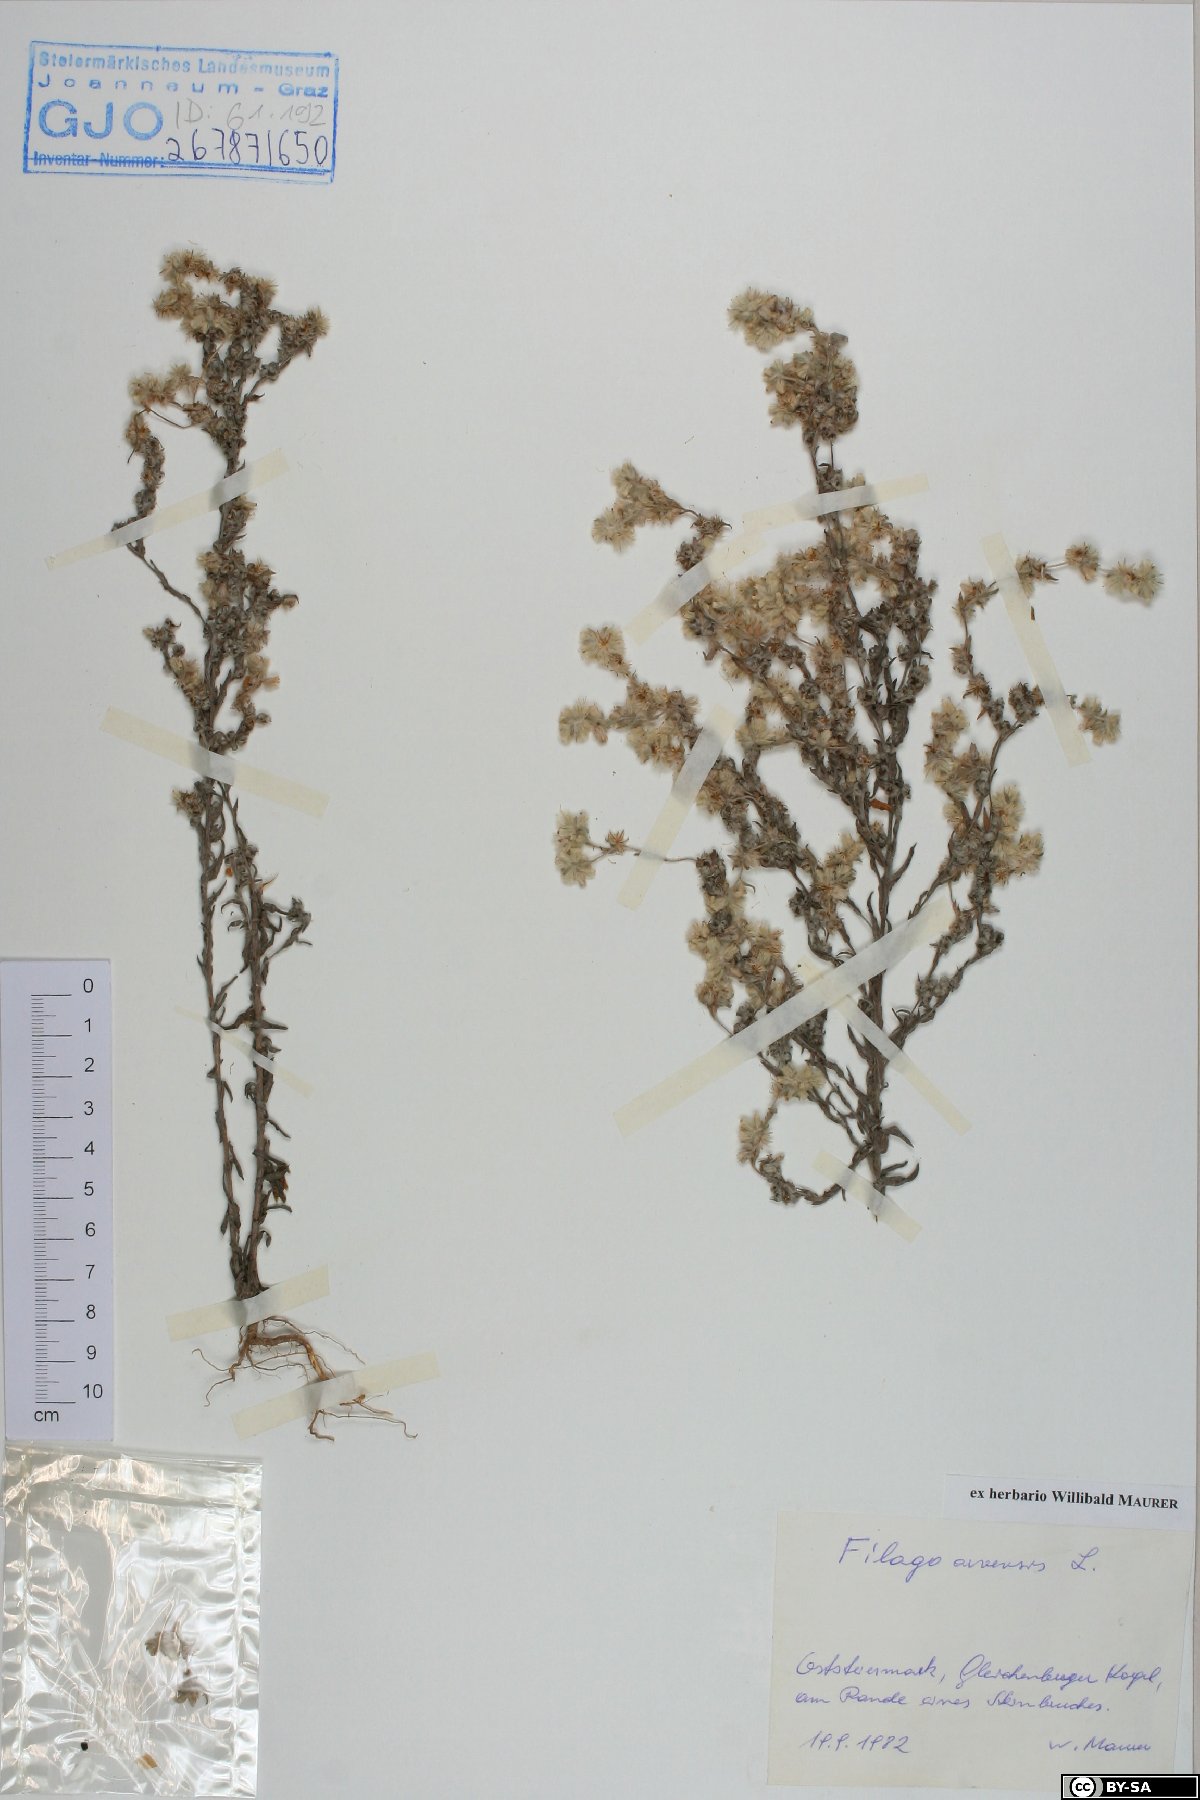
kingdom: Plantae
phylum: Tracheophyta
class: Magnoliopsida
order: Asterales
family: Asteraceae
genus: Filago
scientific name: Filago arvensis
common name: Field cudweed
